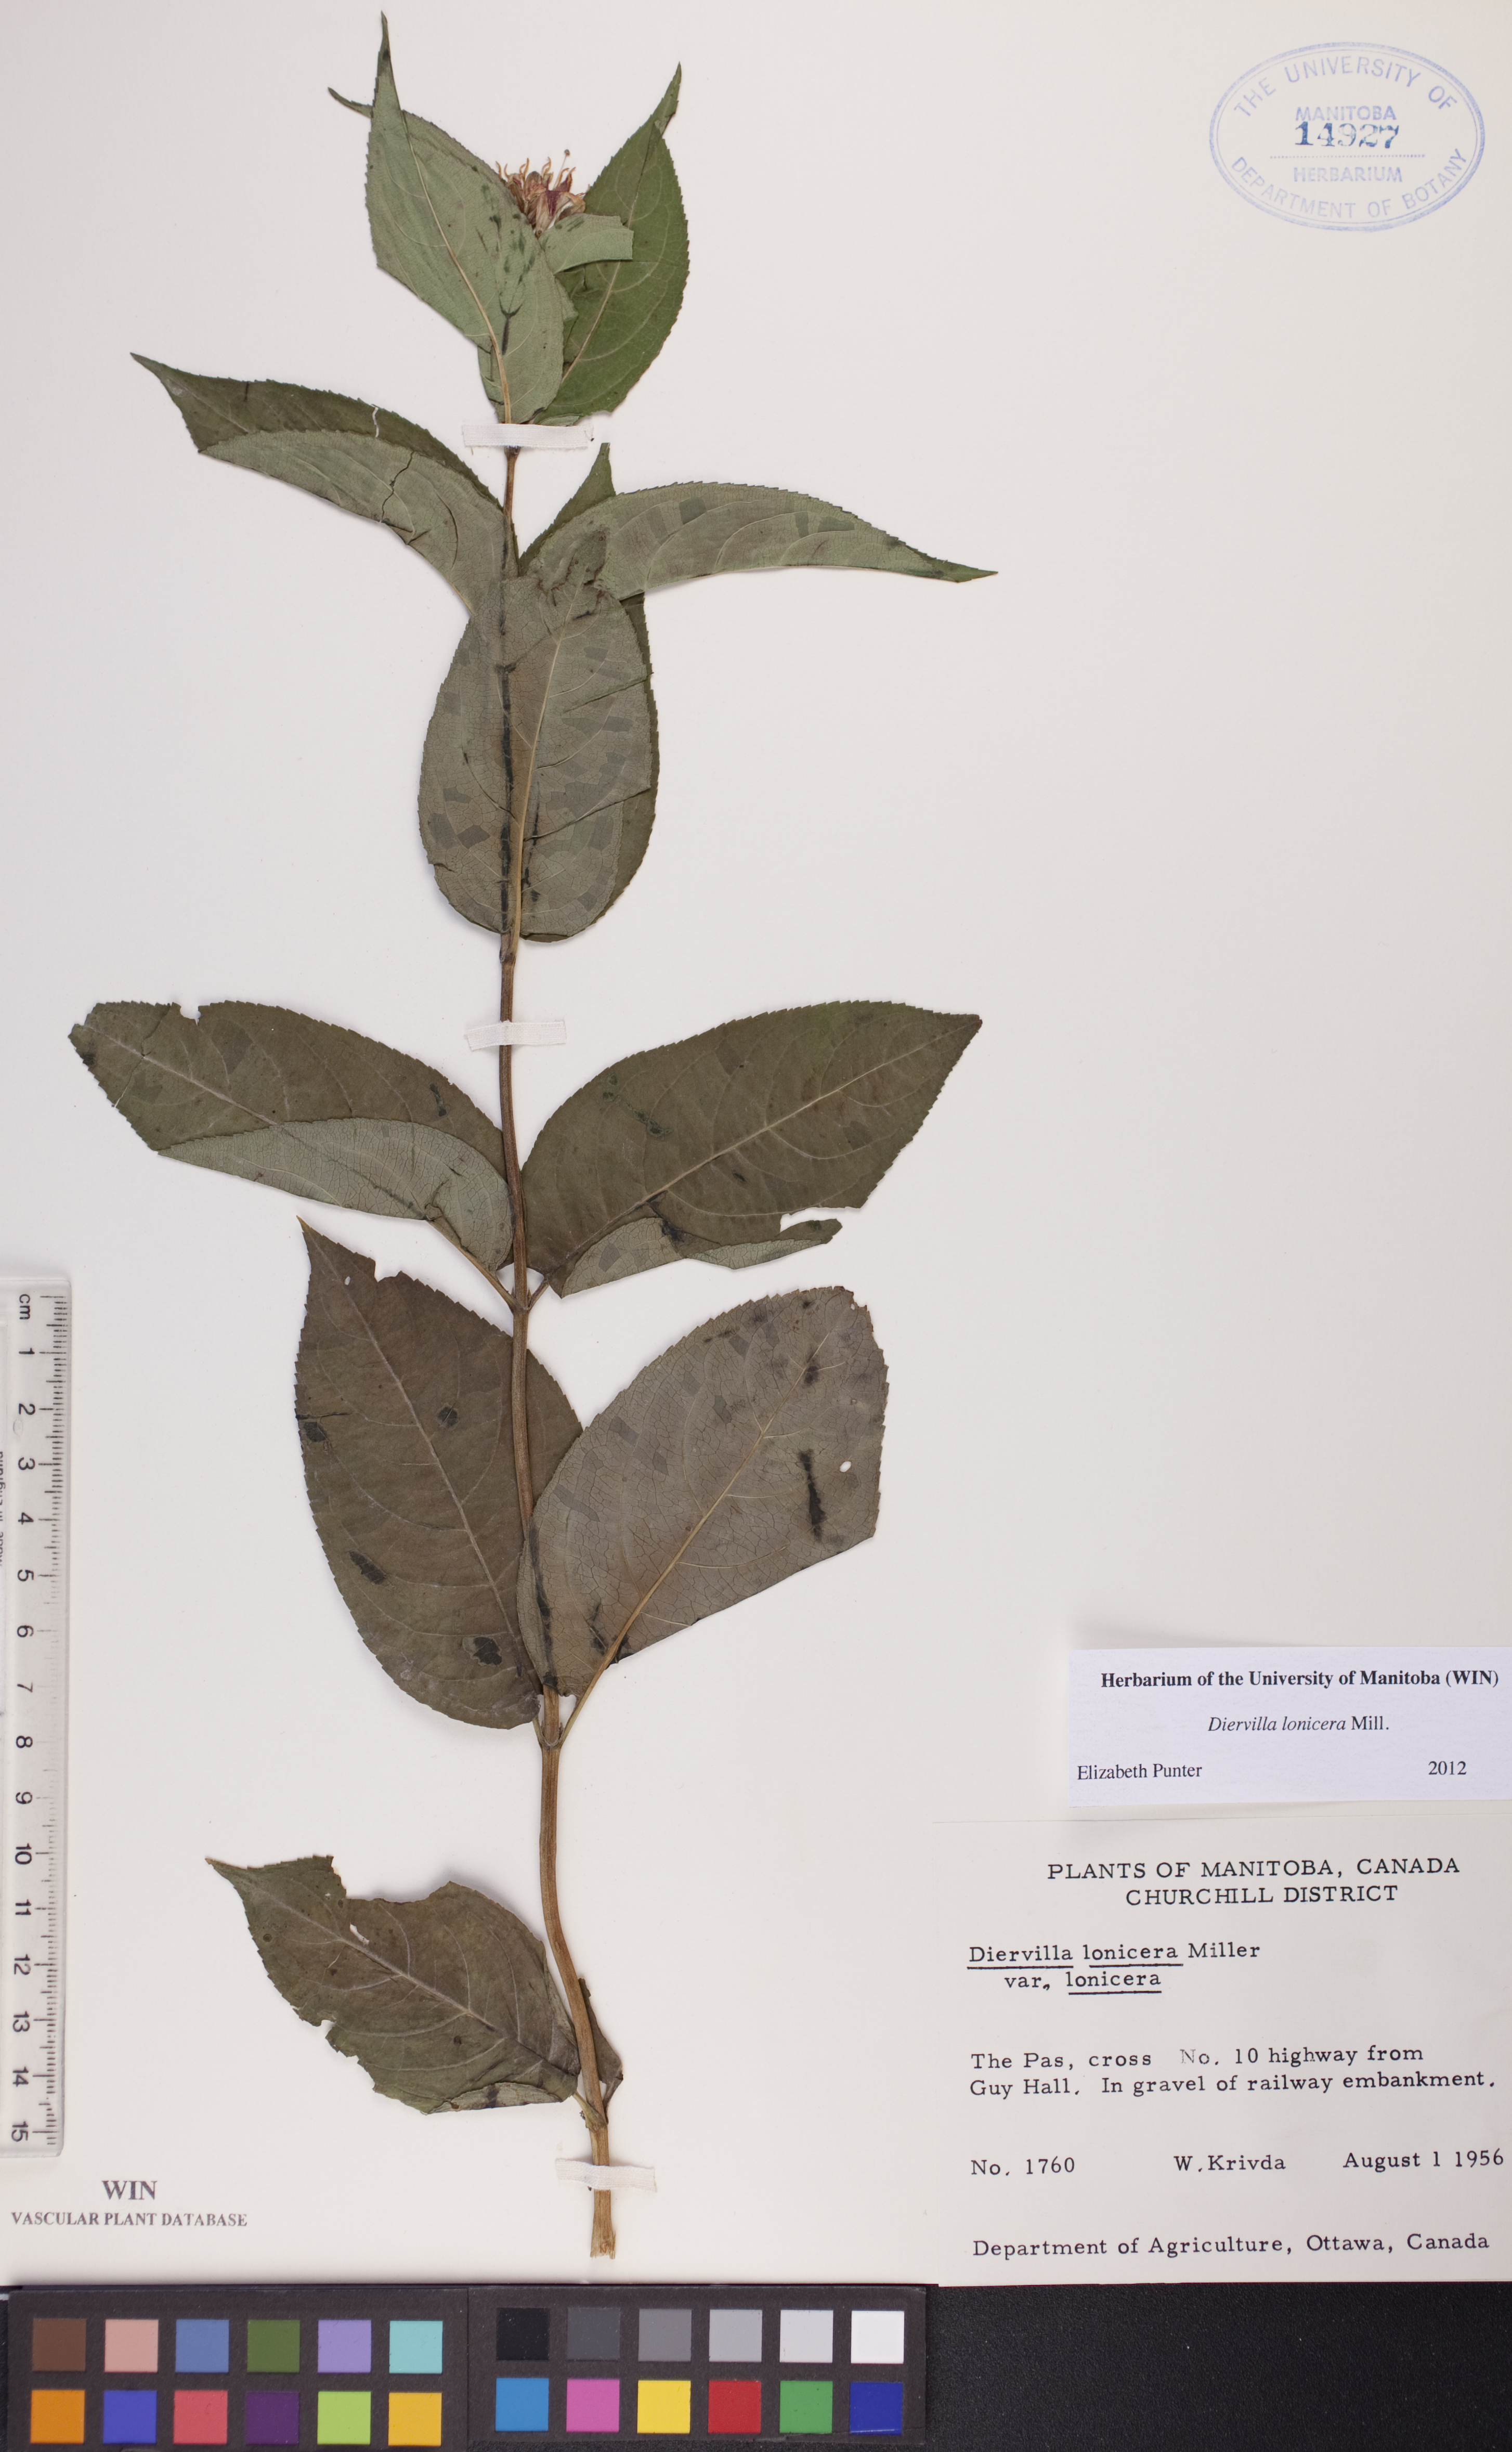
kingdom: Plantae
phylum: Tracheophyta
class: Magnoliopsida
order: Dipsacales
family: Caprifoliaceae
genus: Diervilla
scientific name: Diervilla lonicera
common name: Bush-honeysuckle
